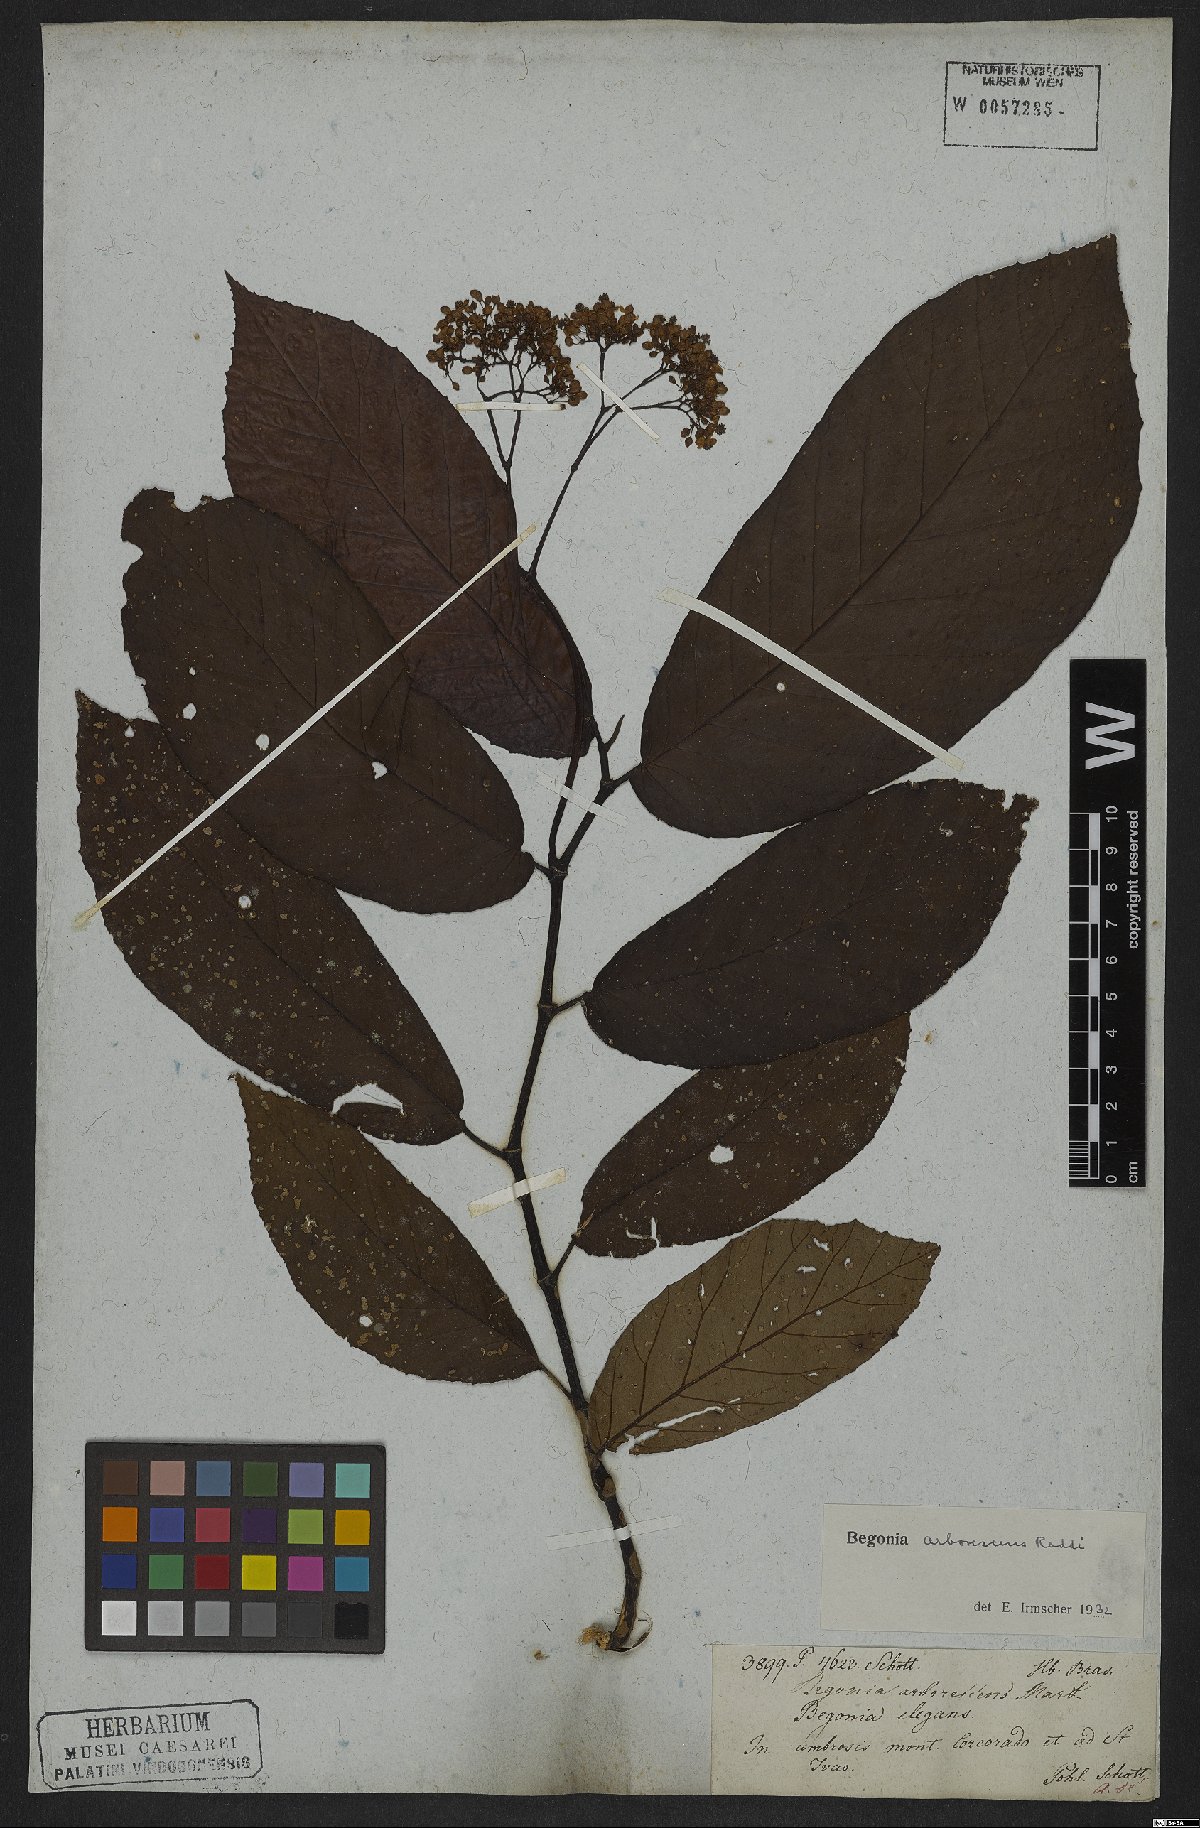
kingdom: Plantae
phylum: Tracheophyta
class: Magnoliopsida
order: Cucurbitales
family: Begoniaceae
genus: Begonia
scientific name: Begonia arborescens
